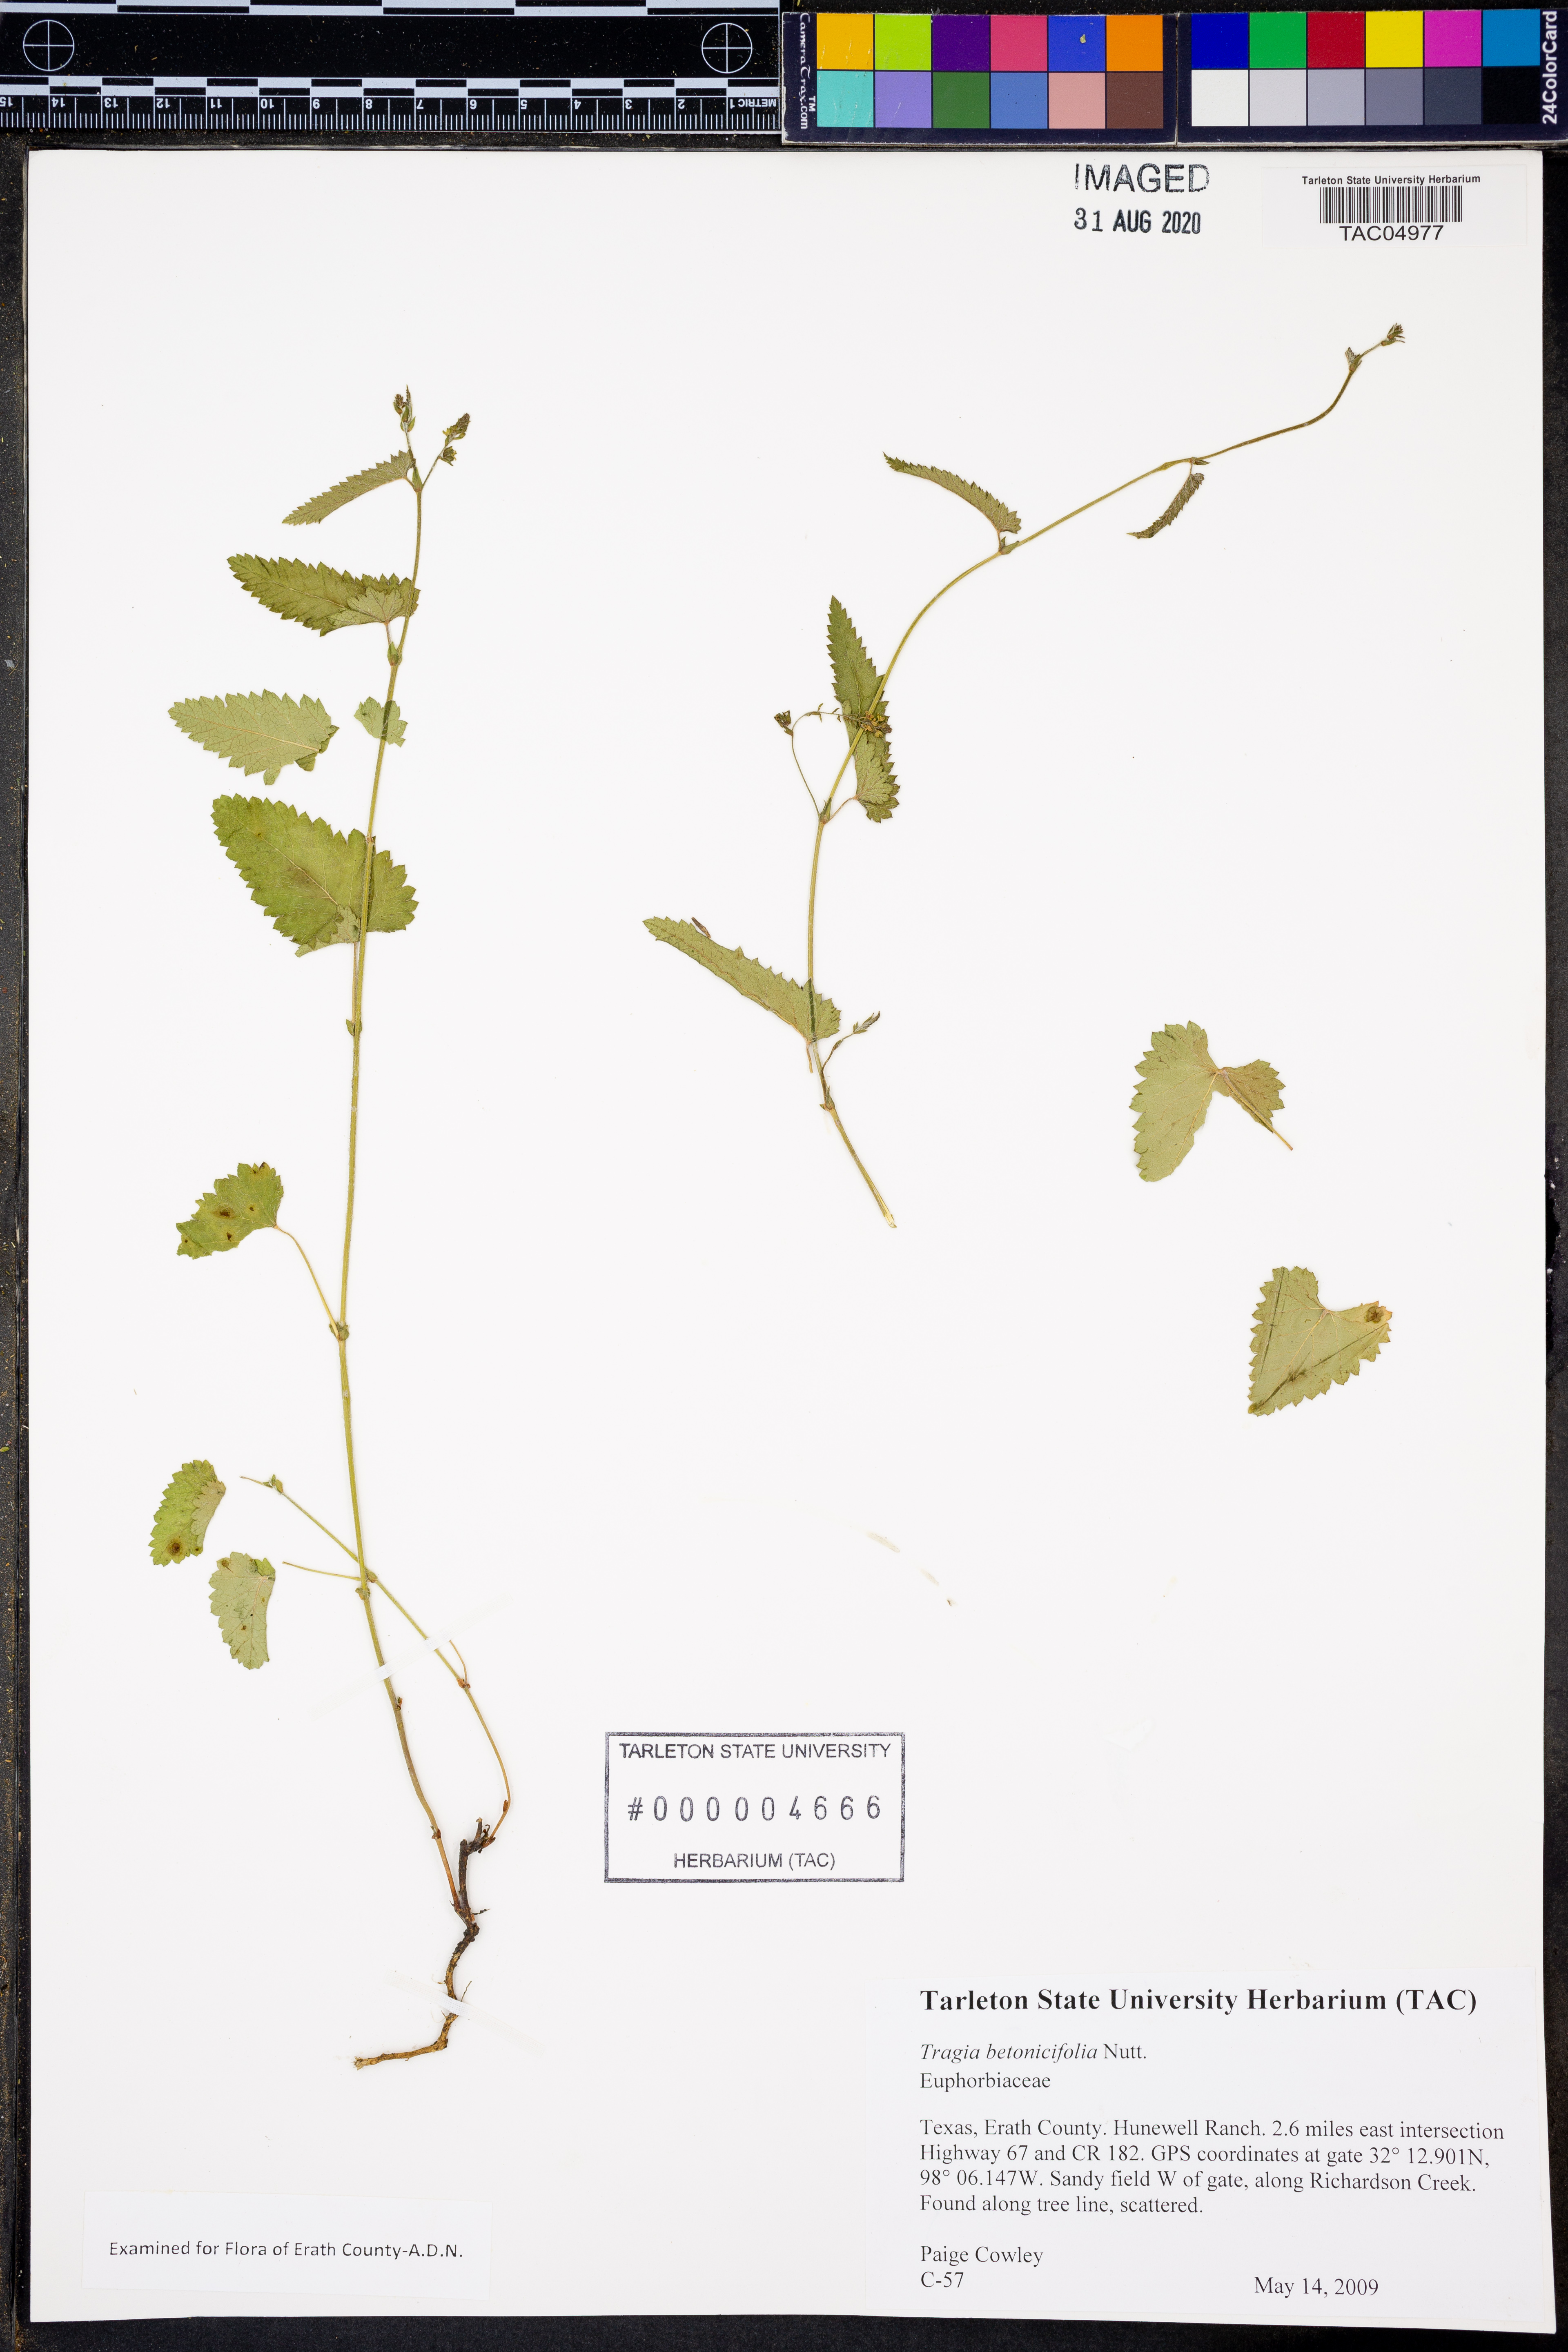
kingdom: Plantae
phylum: Tracheophyta
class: Magnoliopsida
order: Malpighiales
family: Euphorbiaceae
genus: Tragia
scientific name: Tragia betonicifolia
